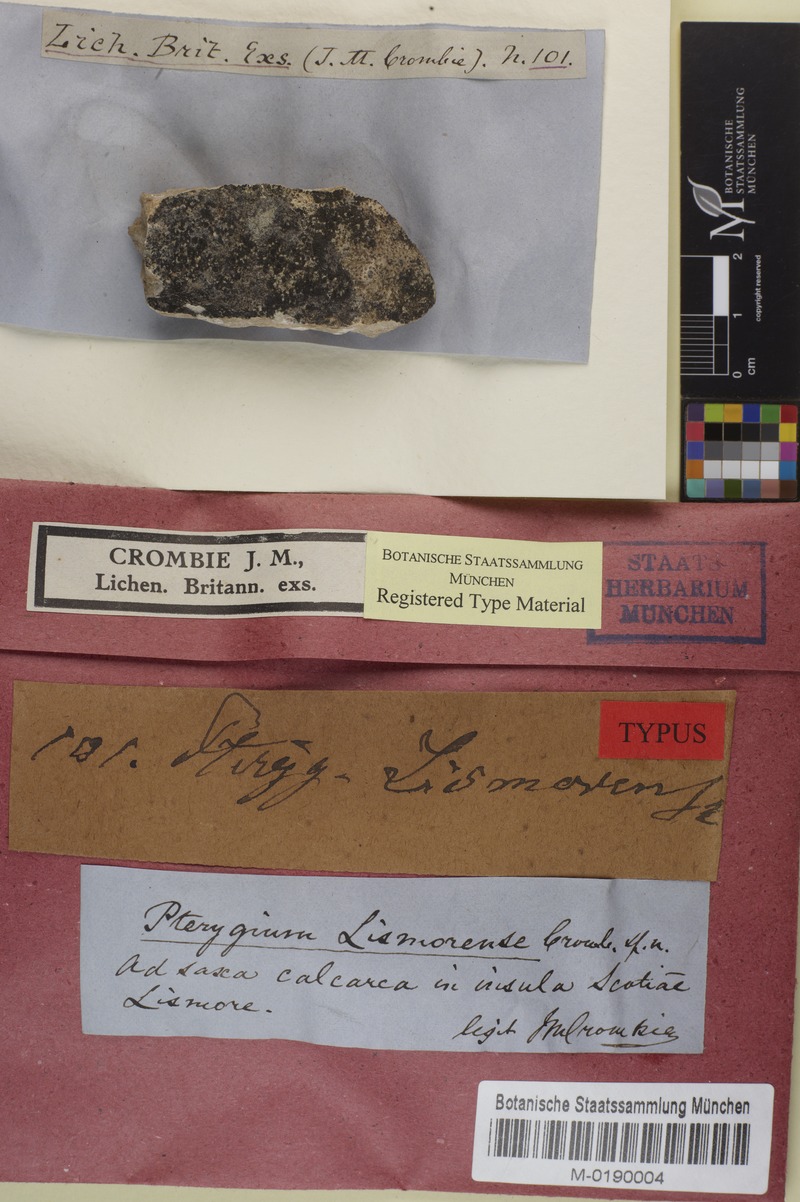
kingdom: Fungi
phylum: Ascomycota
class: Lecanoromycetes
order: Peltigerales
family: Placynthiaceae
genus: Placynthium
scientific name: Placynthium lismorense
